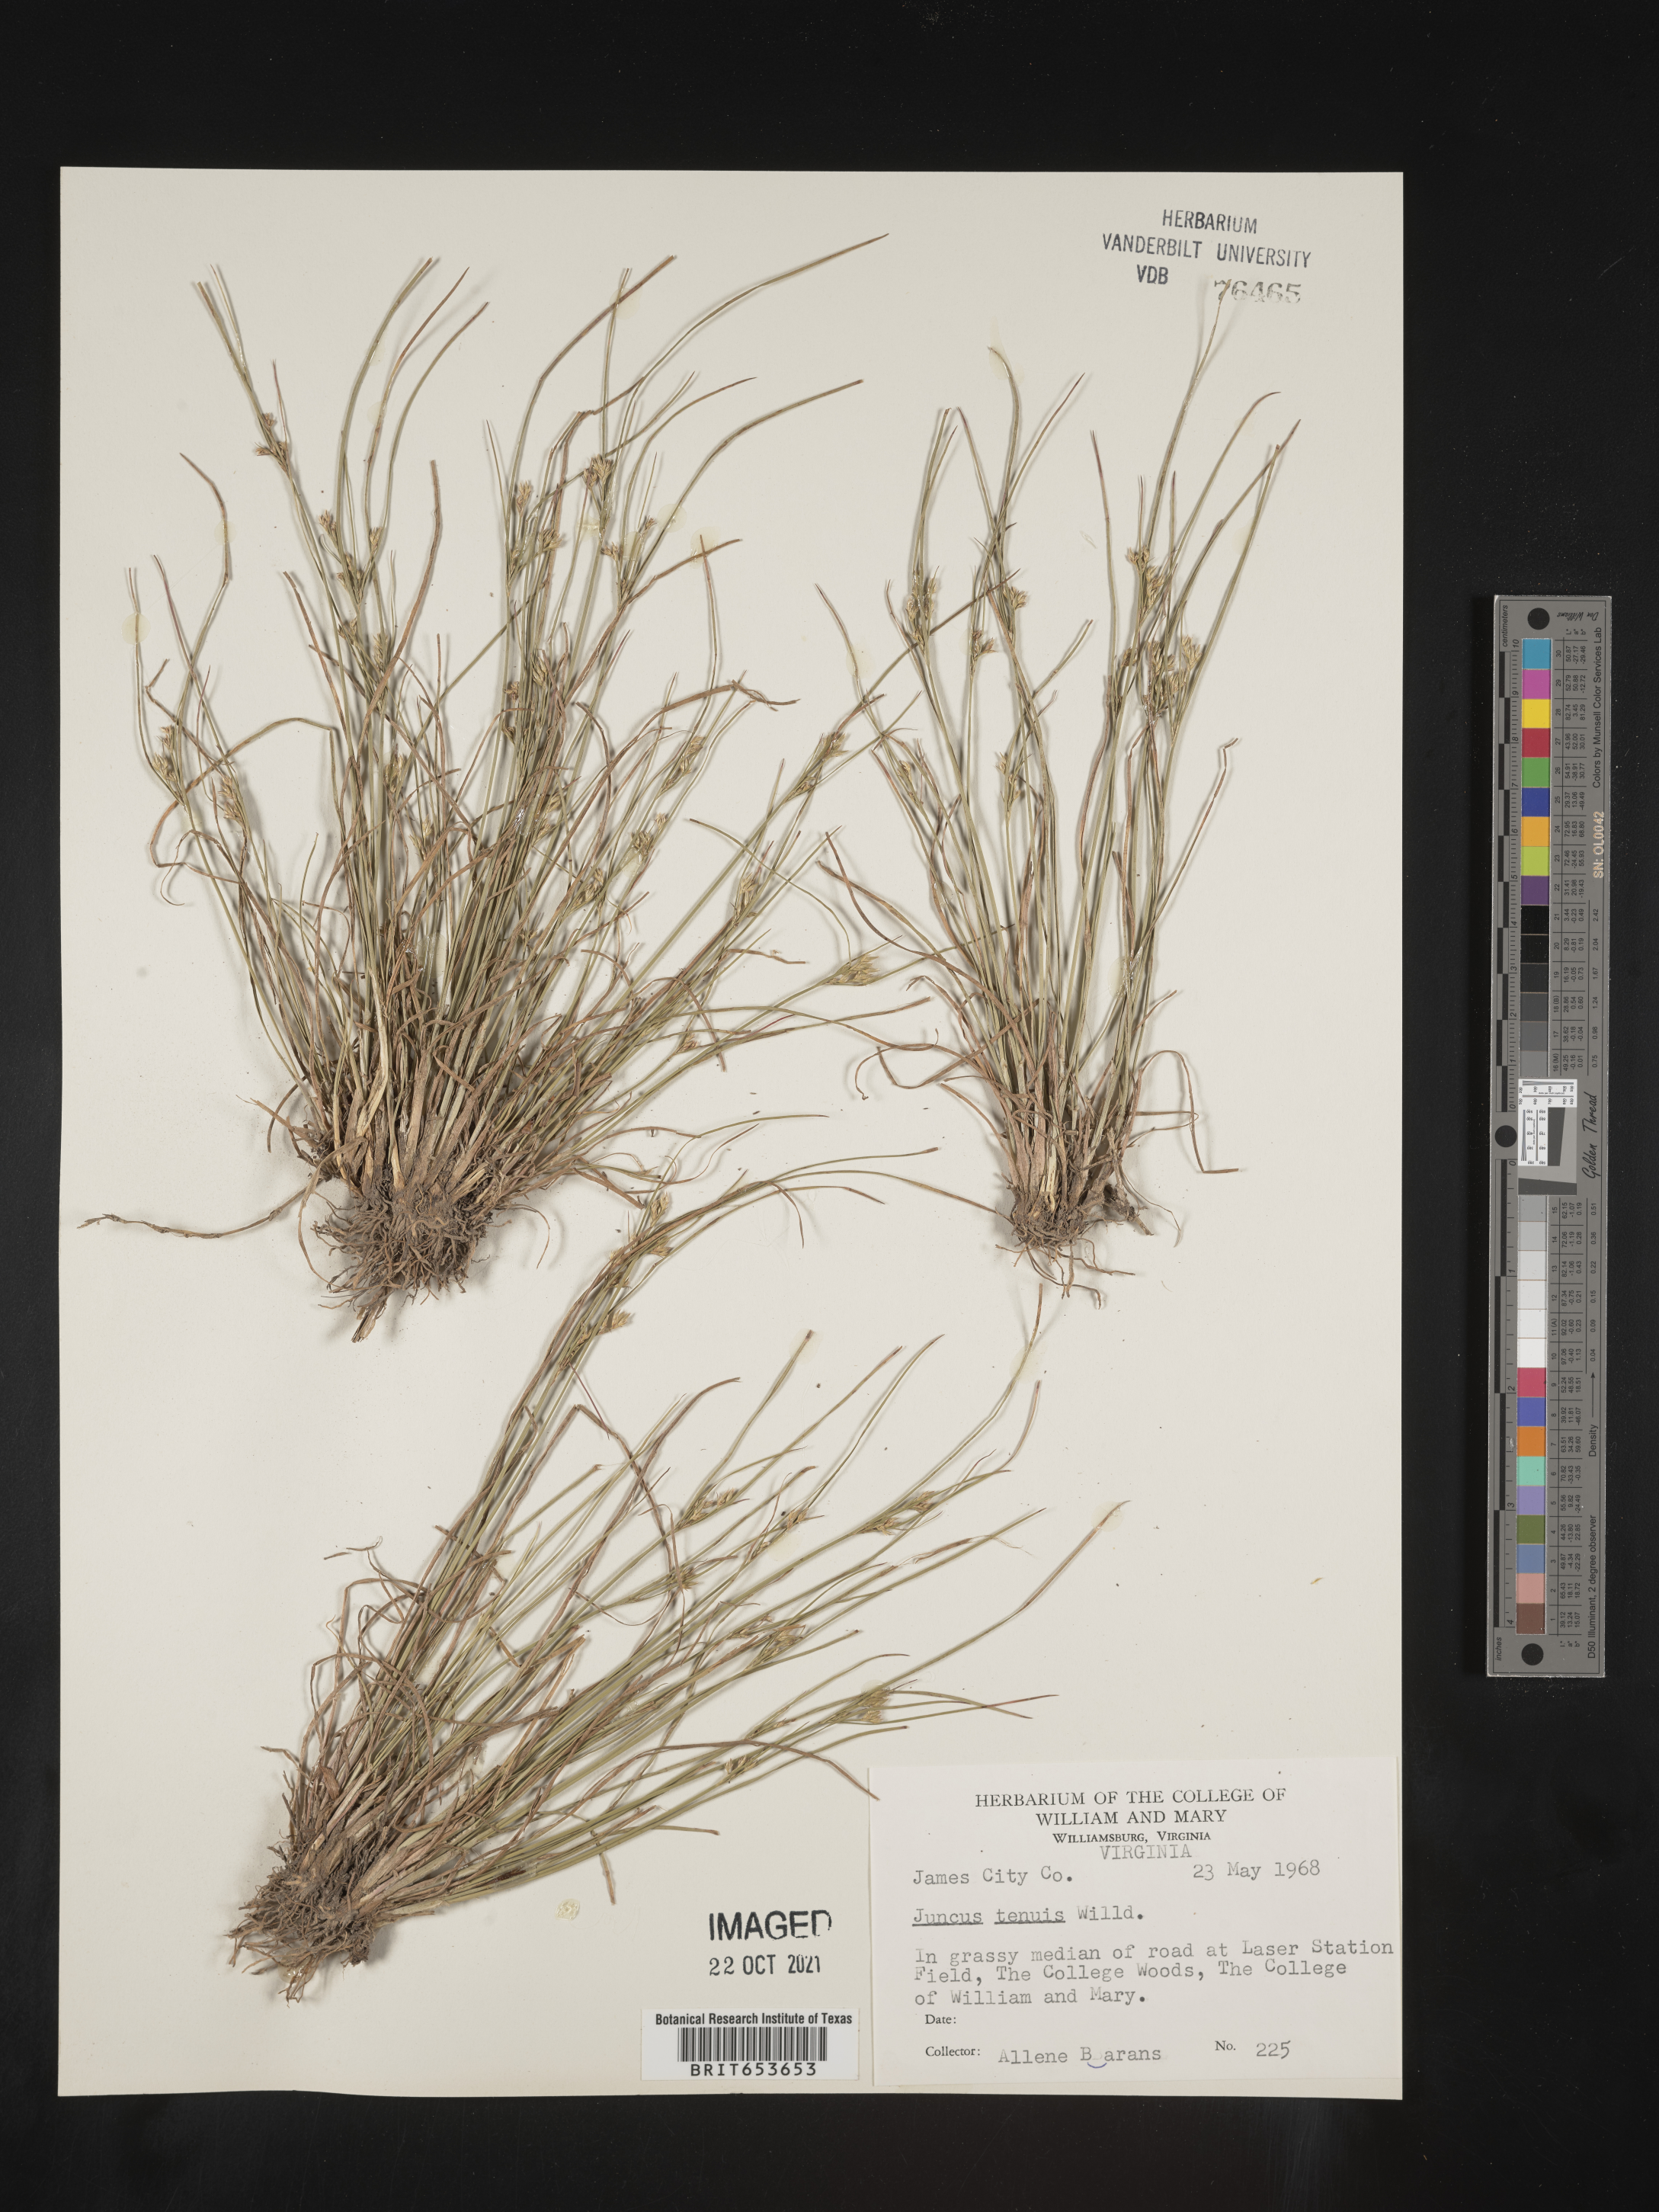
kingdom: Plantae
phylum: Tracheophyta
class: Liliopsida
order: Poales
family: Juncaceae
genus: Juncus
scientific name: Juncus tenuis
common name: Slender rush
